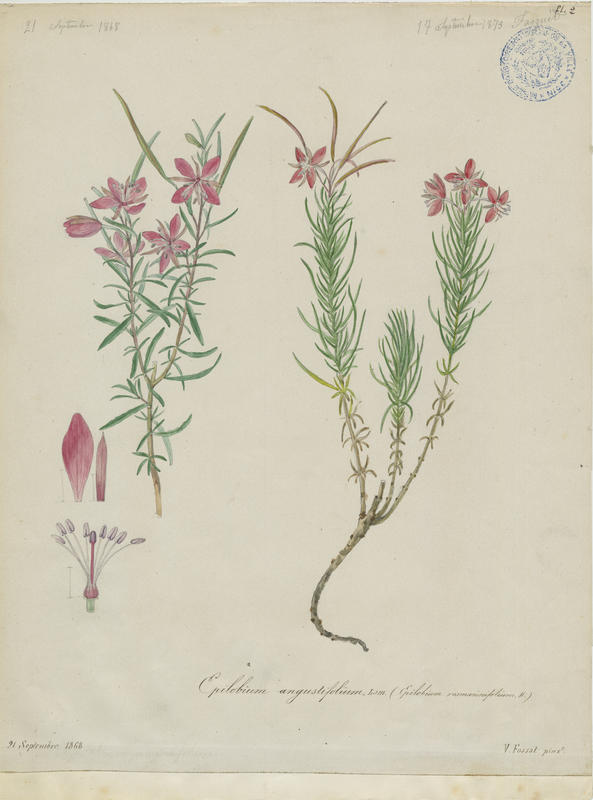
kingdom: Plantae
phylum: Tracheophyta
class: Magnoliopsida
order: Myrtales
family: Onagraceae
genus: Chamaenerion
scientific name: Chamaenerion angustifolium
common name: Fireweed
